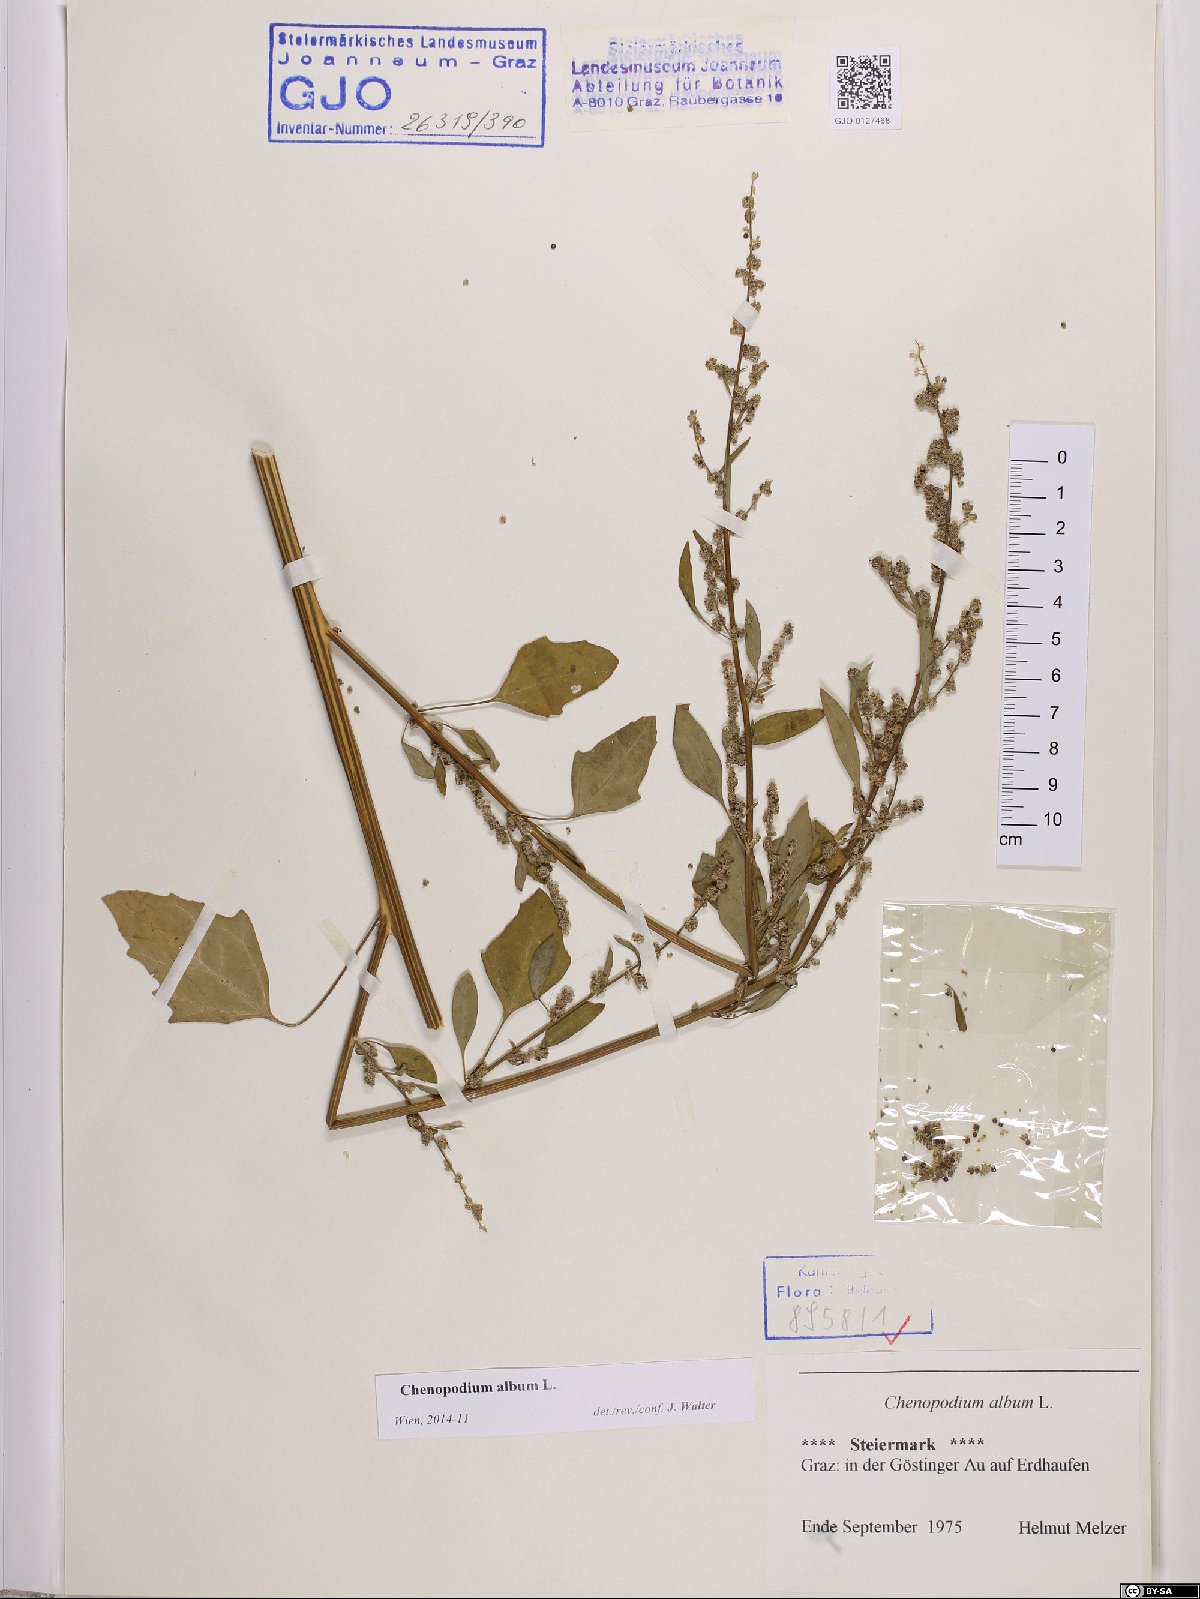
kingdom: Plantae
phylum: Tracheophyta
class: Magnoliopsida
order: Caryophyllales
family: Amaranthaceae
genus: Chenopodium
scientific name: Chenopodium album
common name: Fat-hen
